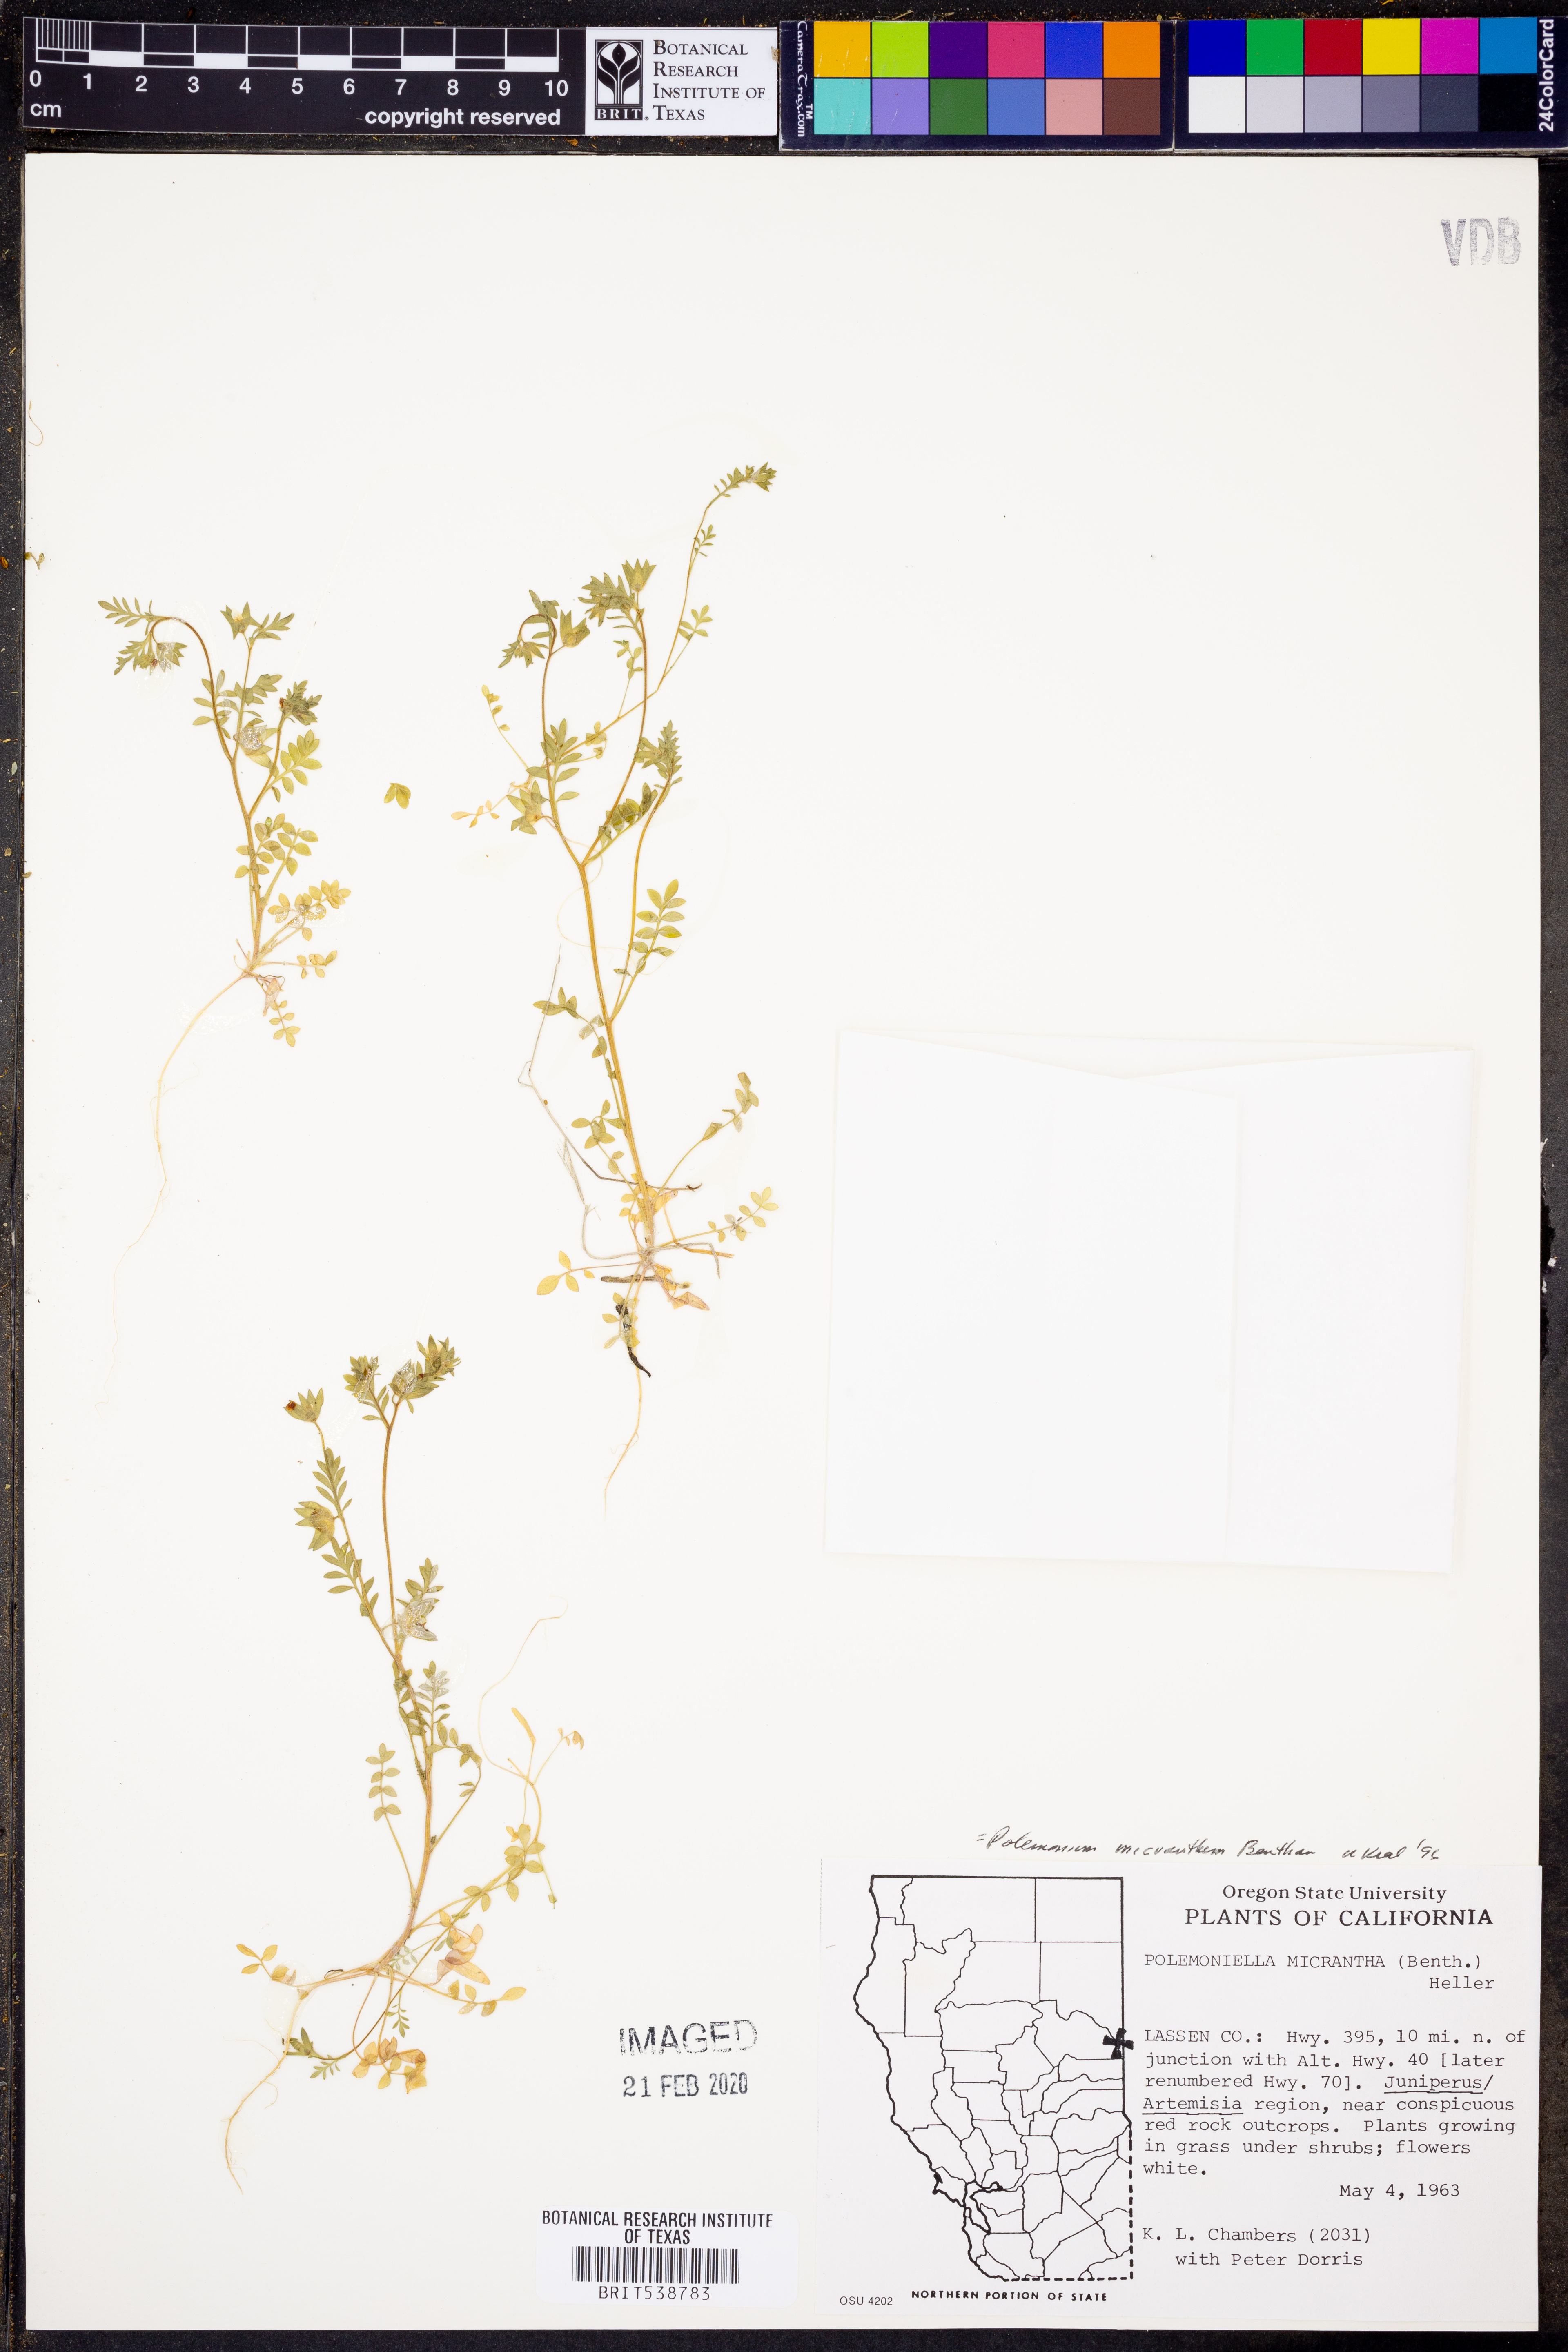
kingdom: Plantae
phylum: Tracheophyta
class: Magnoliopsida
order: Ericales
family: Polemoniaceae
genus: Polemonium
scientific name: Polemonium micranthum
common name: Annual jacob's-ladder
